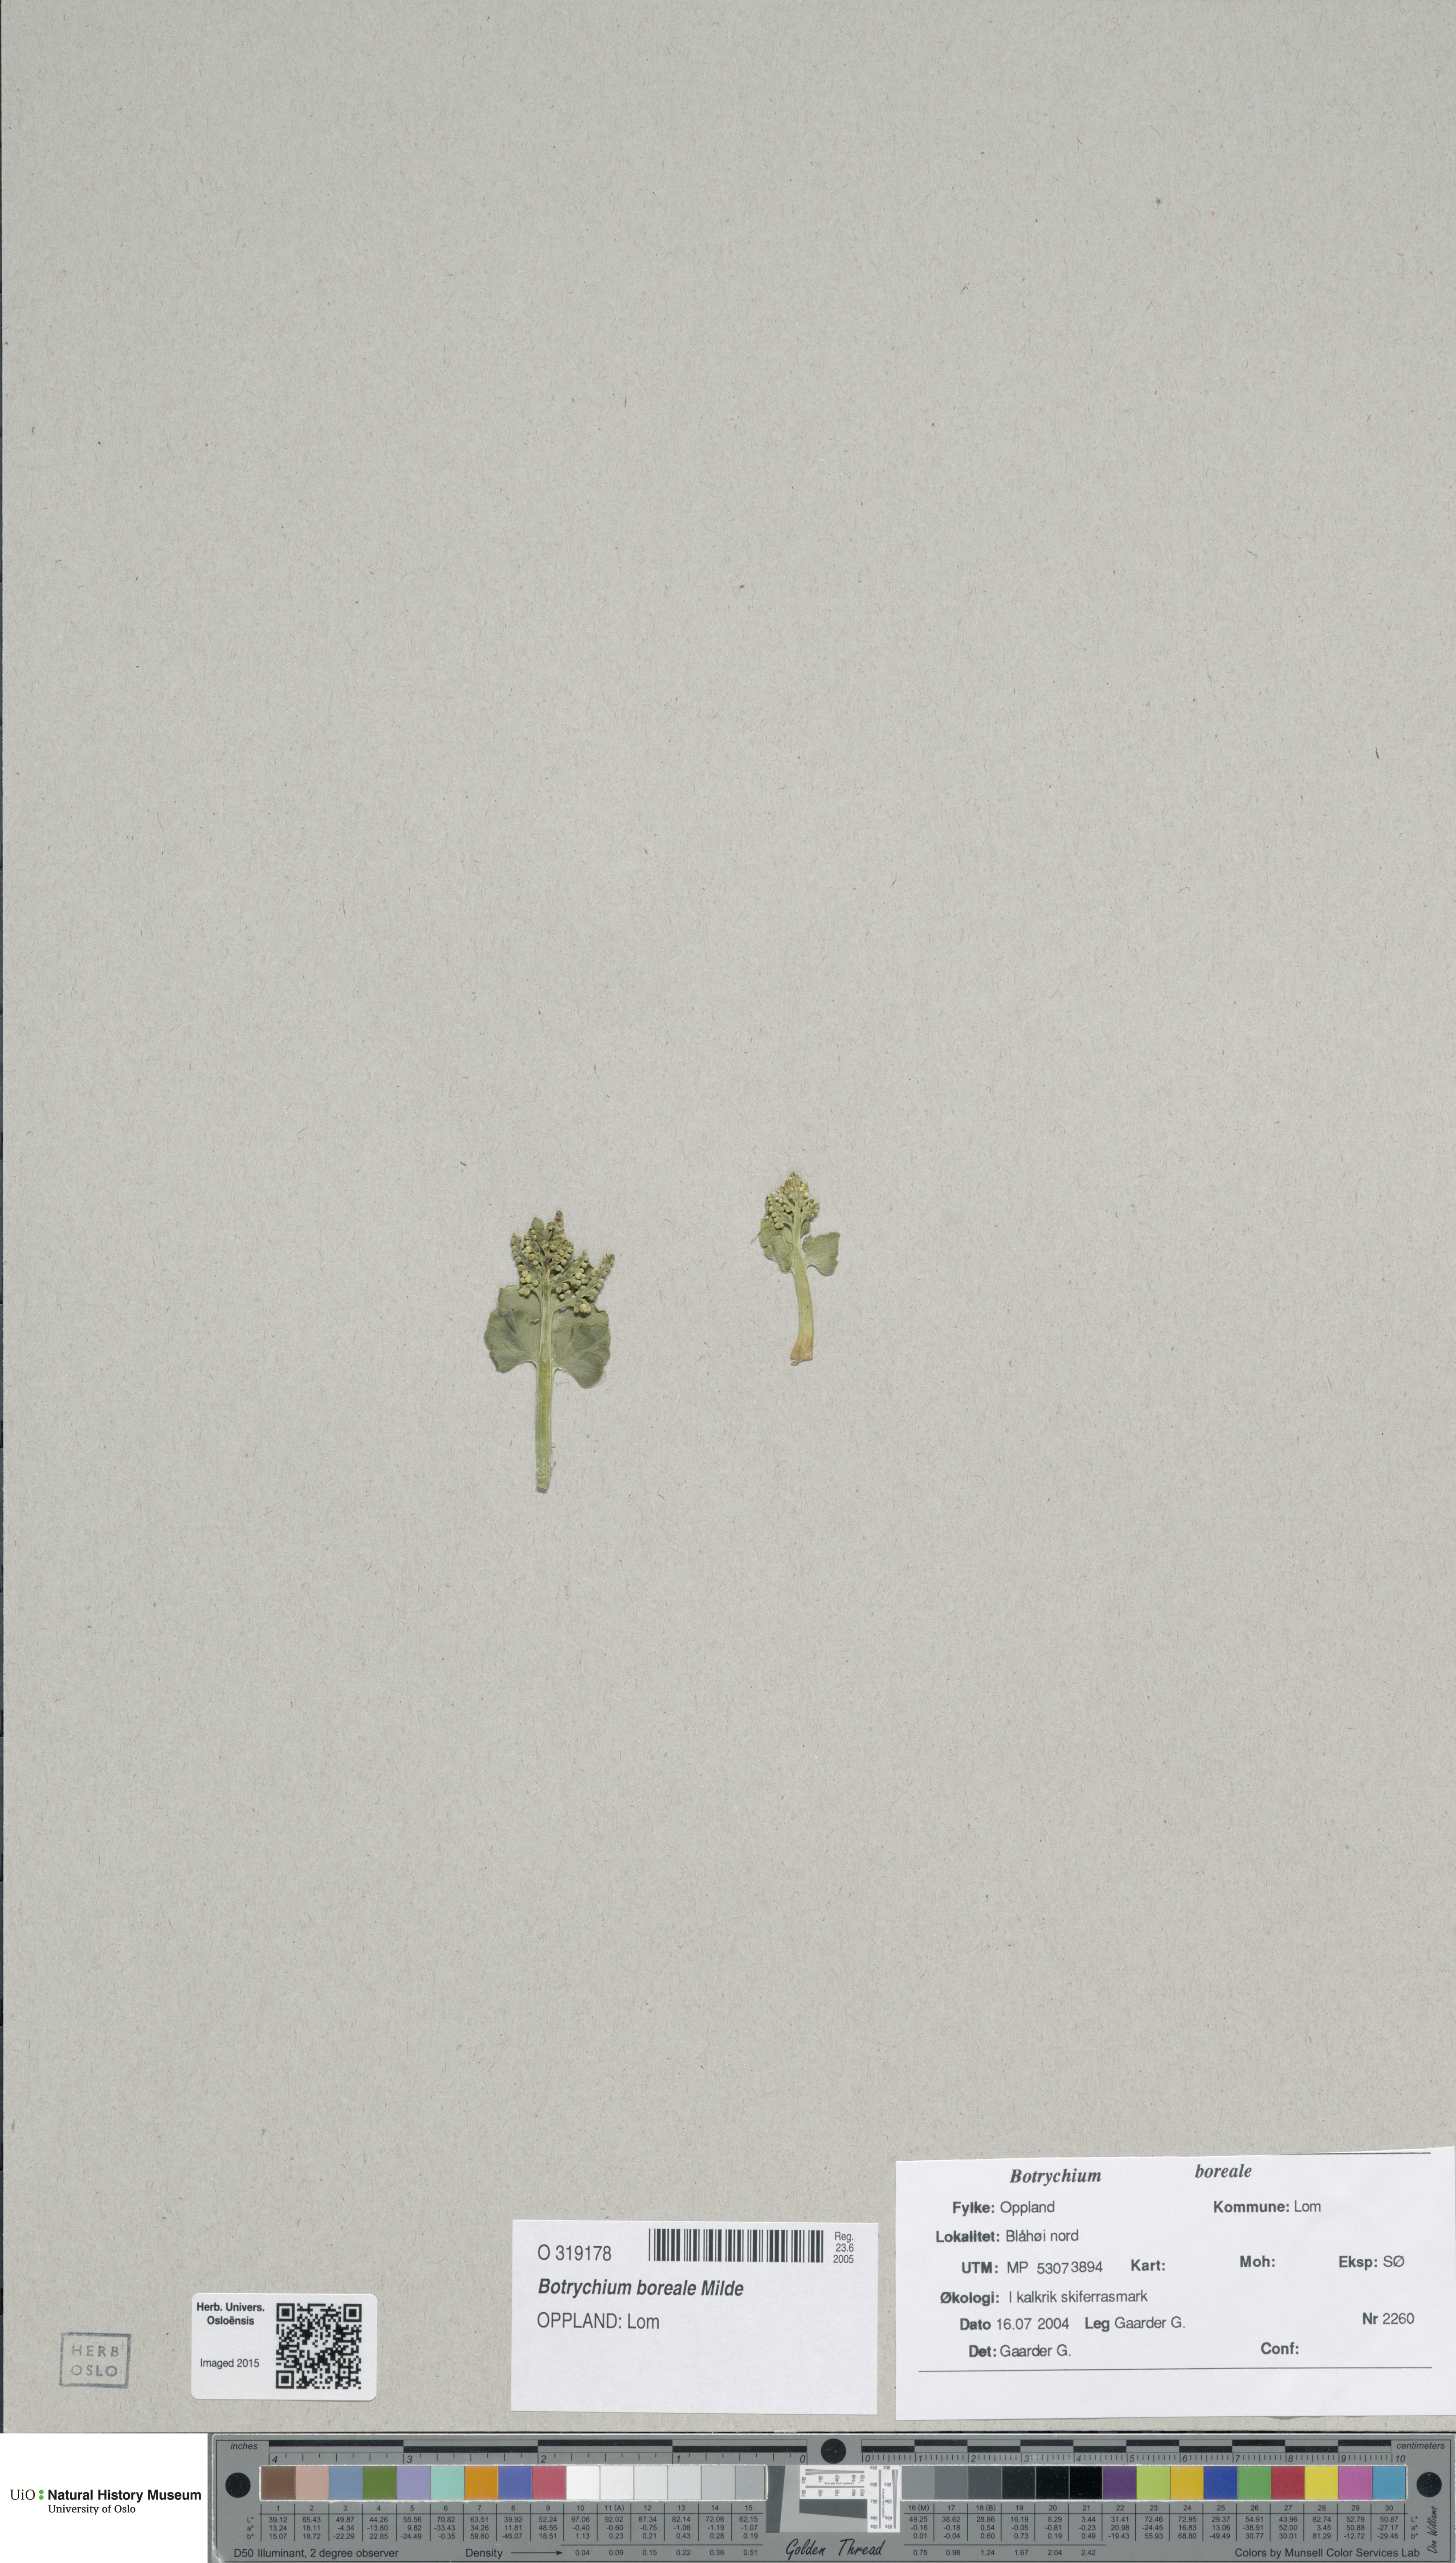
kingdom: Plantae
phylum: Tracheophyta
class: Polypodiopsida
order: Ophioglossales
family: Ophioglossaceae
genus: Botrychium
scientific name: Botrychium boreale
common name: Boreal moonwort
